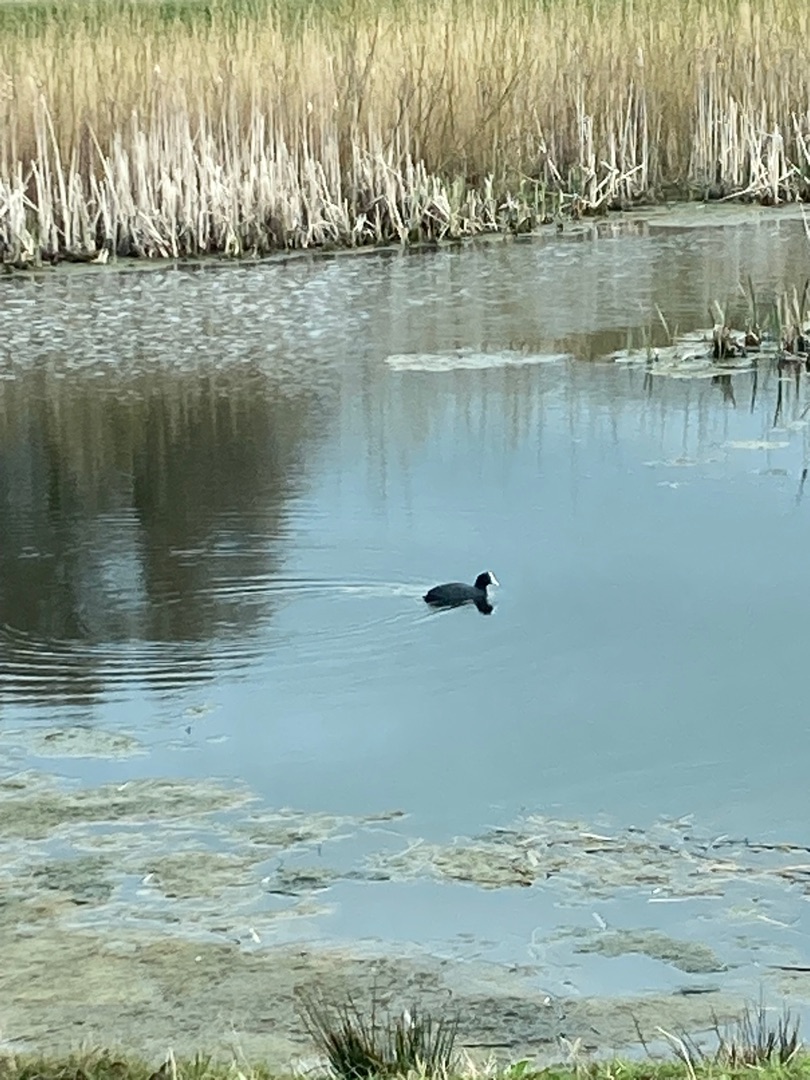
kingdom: Animalia
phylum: Chordata
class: Aves
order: Gruiformes
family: Rallidae
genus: Fulica
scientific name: Fulica atra
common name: Blishøne
